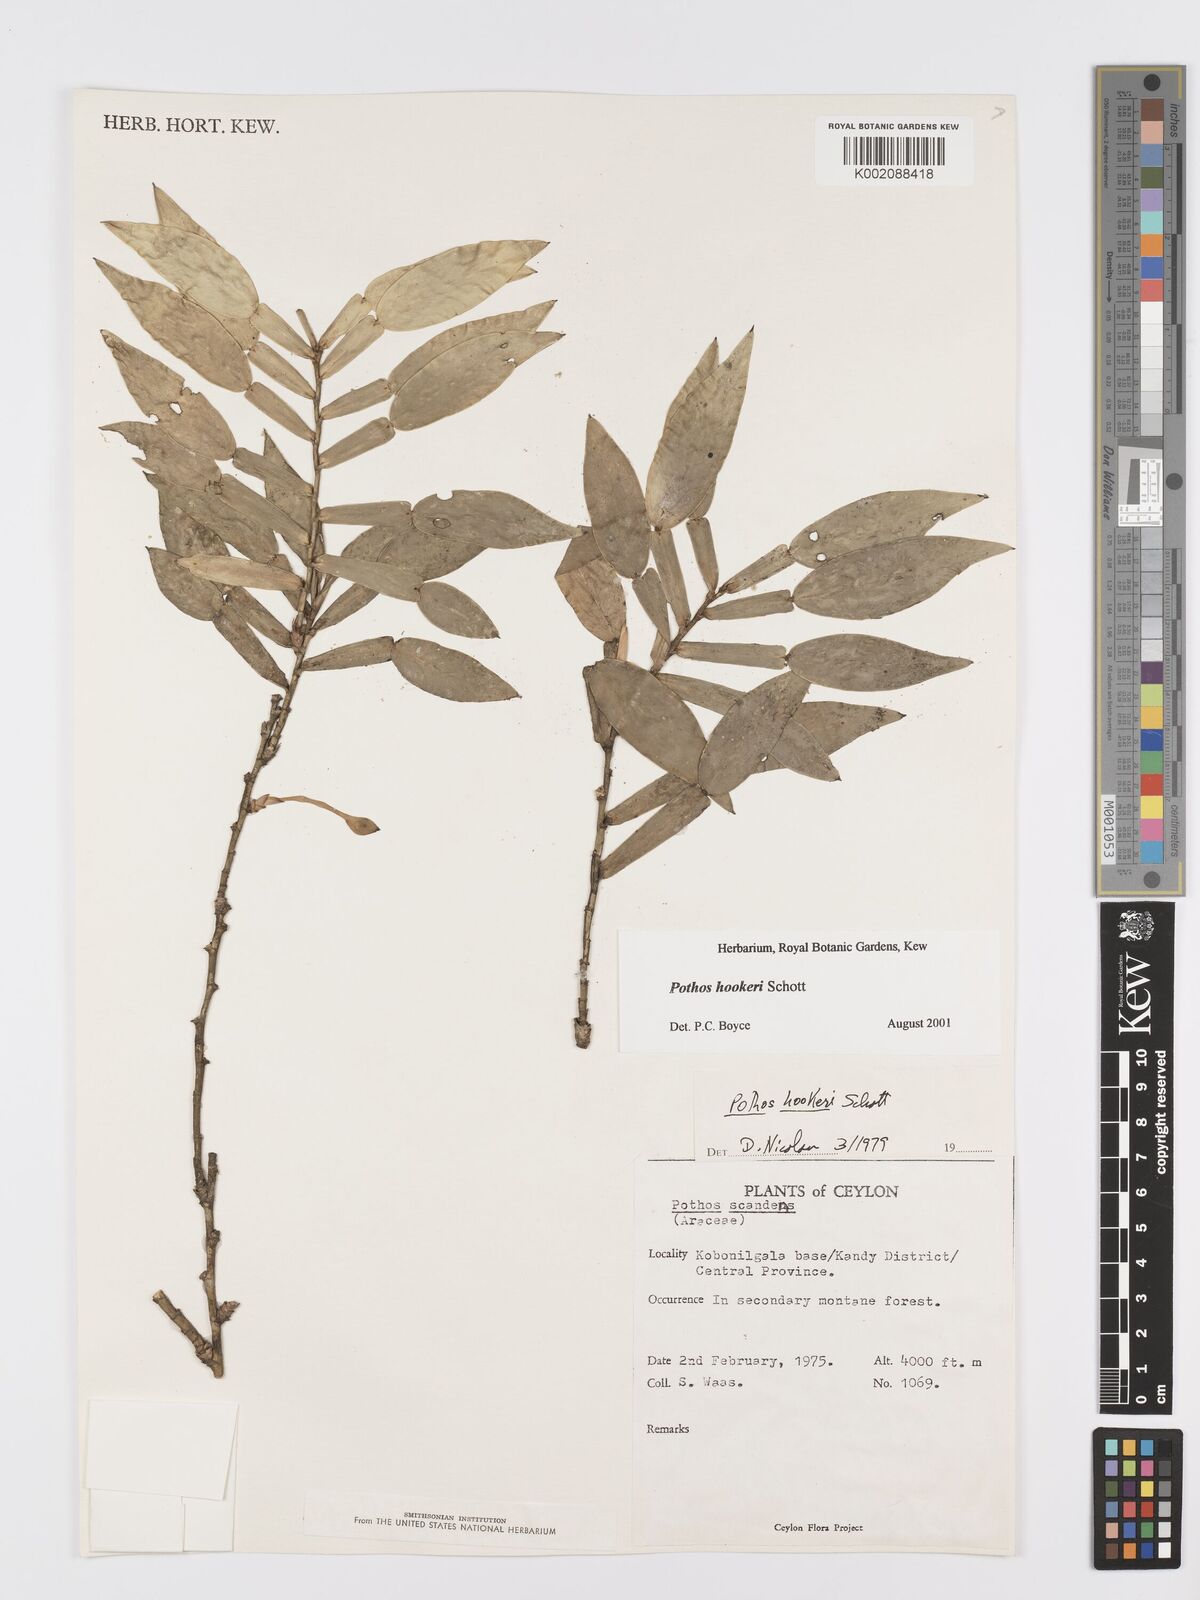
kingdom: Plantae
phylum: Tracheophyta
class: Liliopsida
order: Alismatales
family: Araceae
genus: Pothos
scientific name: Pothos hookeri
